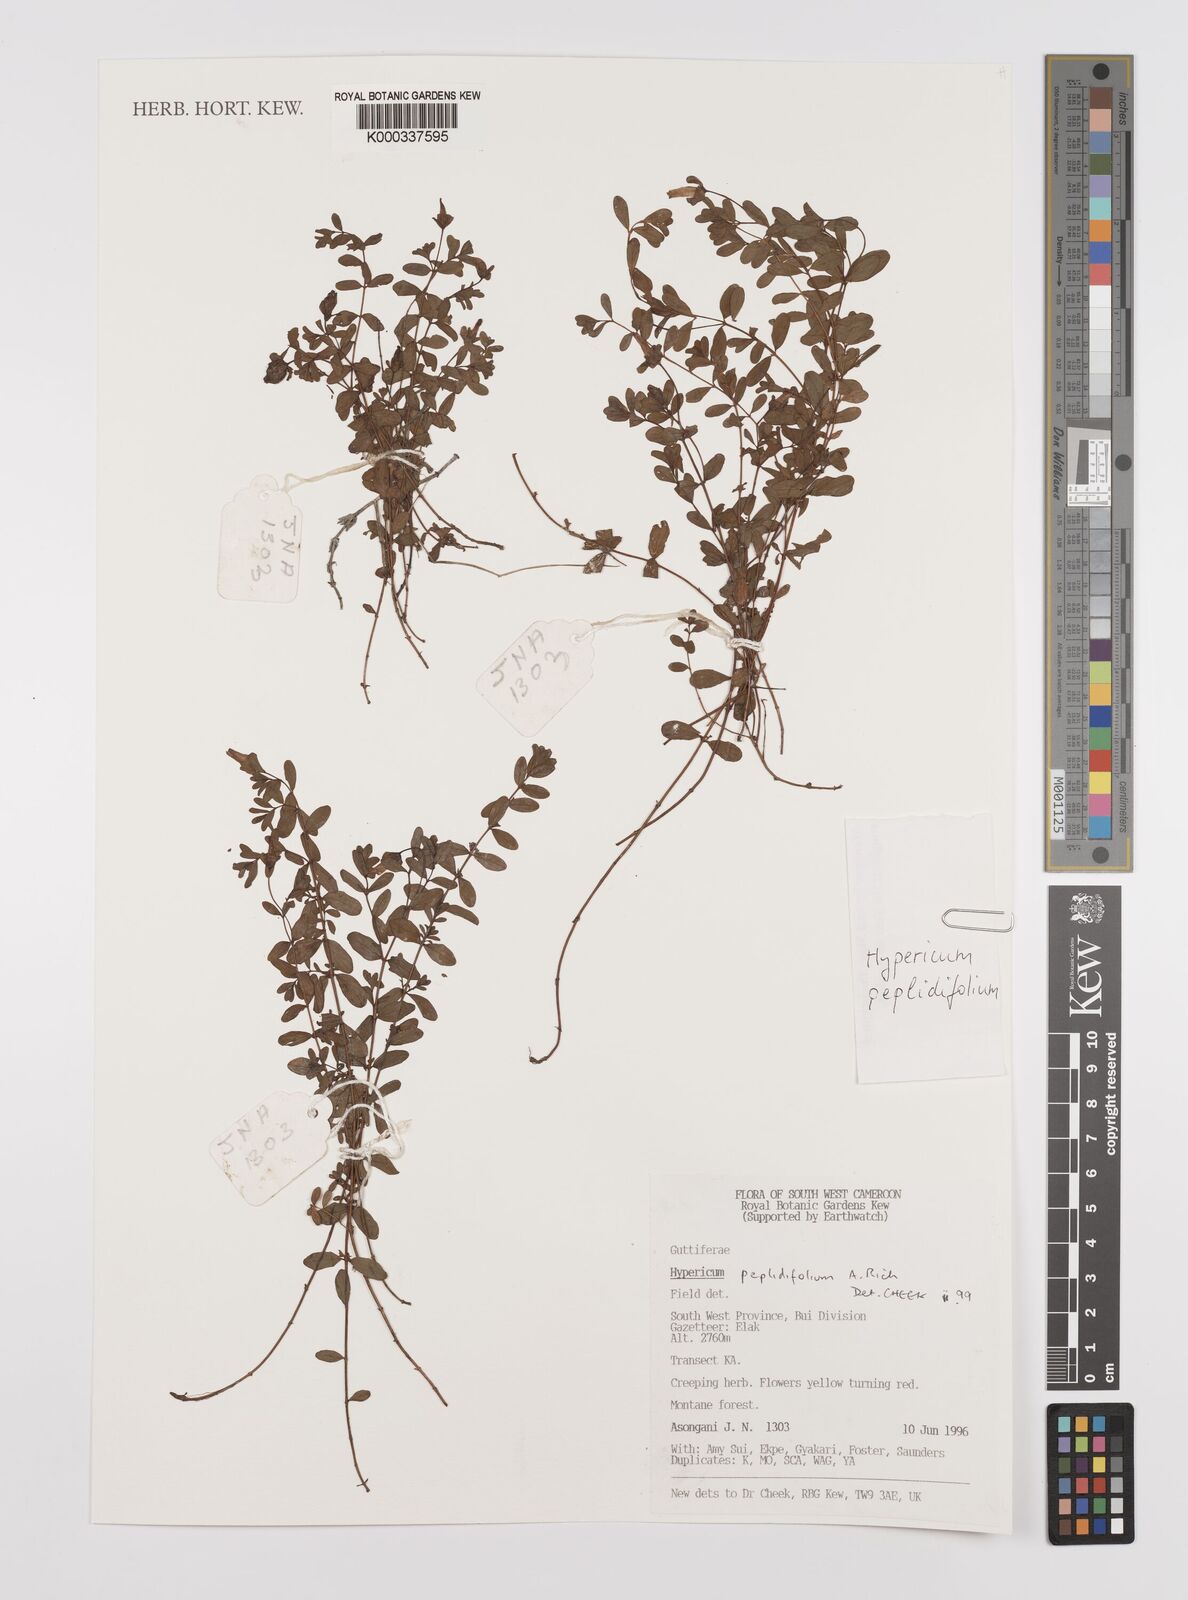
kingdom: Plantae
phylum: Tracheophyta
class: Magnoliopsida
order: Malpighiales
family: Hypericaceae
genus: Hypericum
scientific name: Hypericum peplidifolium
